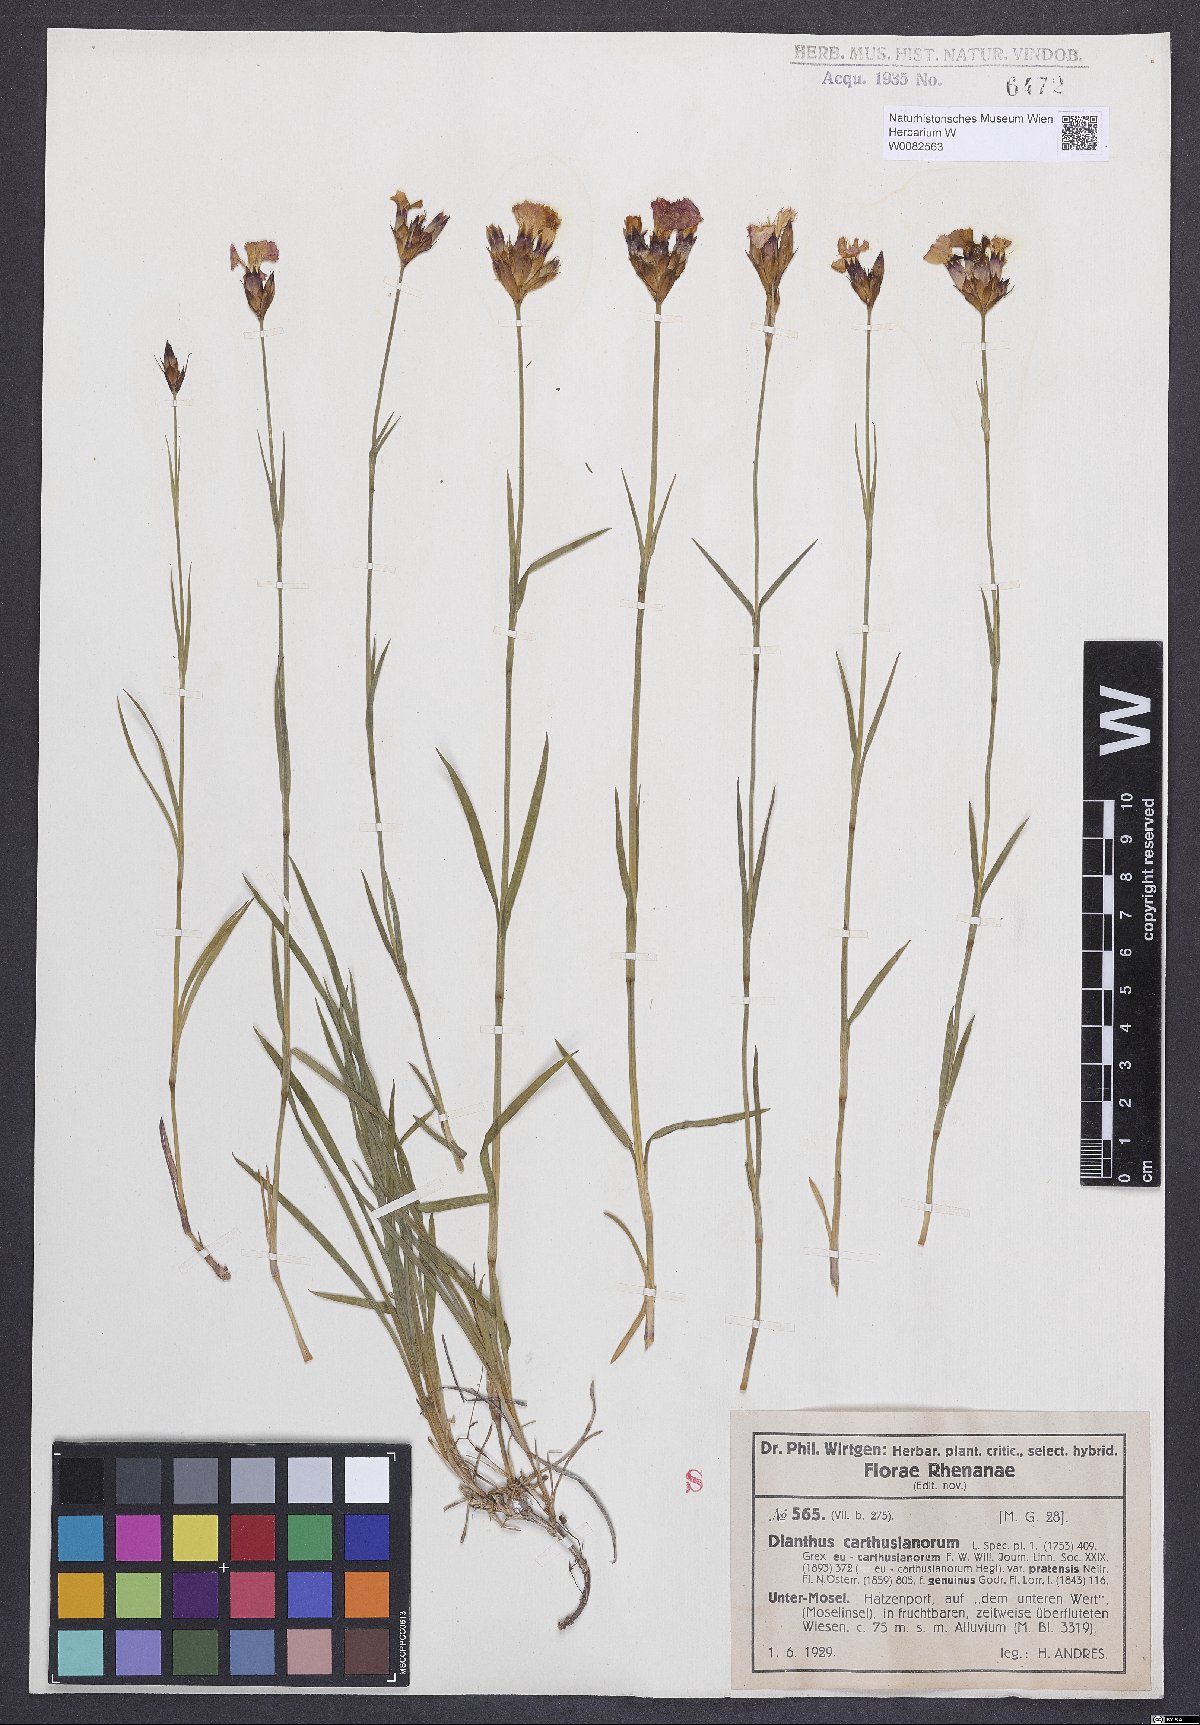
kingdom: Plantae
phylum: Tracheophyta
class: Magnoliopsida
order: Caryophyllales
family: Caryophyllaceae
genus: Dianthus
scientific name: Dianthus carthusianorum
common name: Carthusian pink
